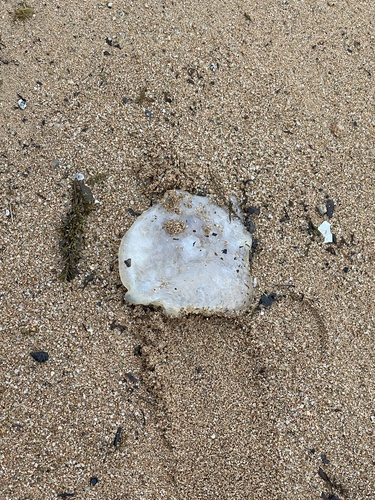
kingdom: Animalia
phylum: Cnidaria
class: Scyphozoa
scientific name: Scyphozoa
